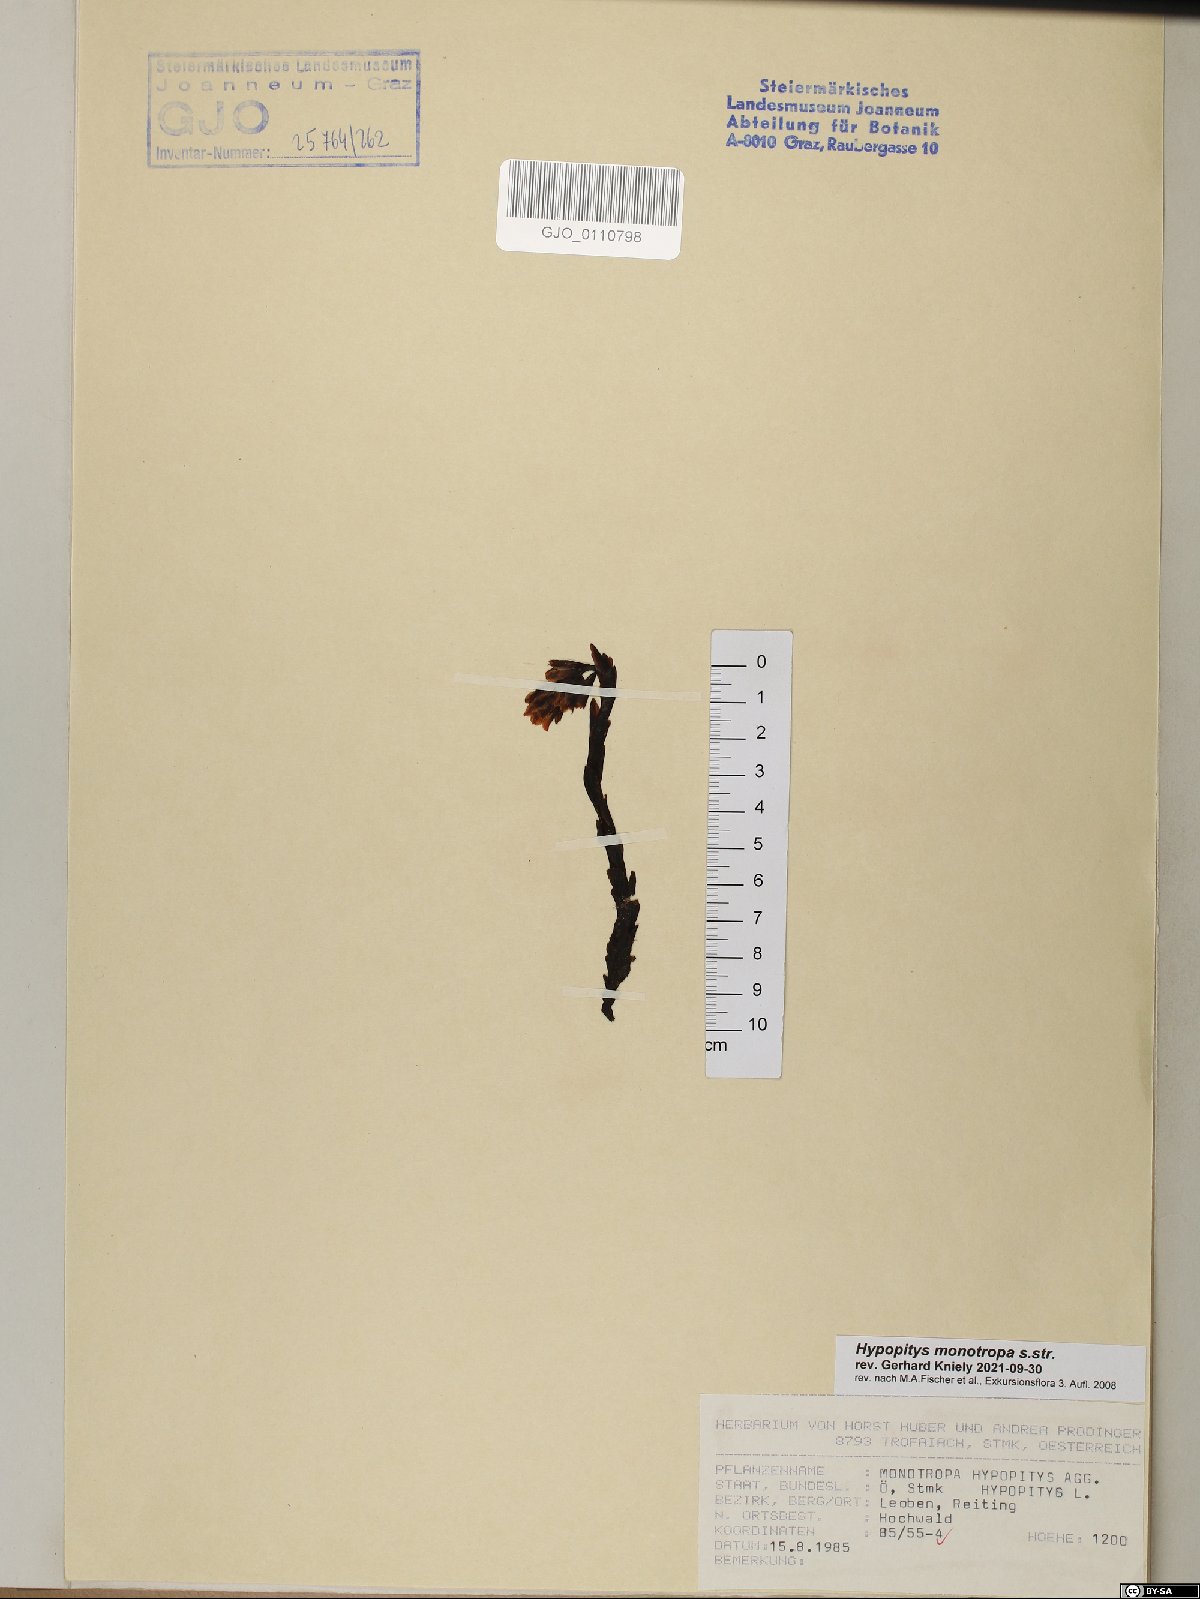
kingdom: Plantae
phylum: Tracheophyta
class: Magnoliopsida
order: Ericales
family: Ericaceae
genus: Hypopitys
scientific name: Hypopitys monotropa
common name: Yellow bird's-nest
